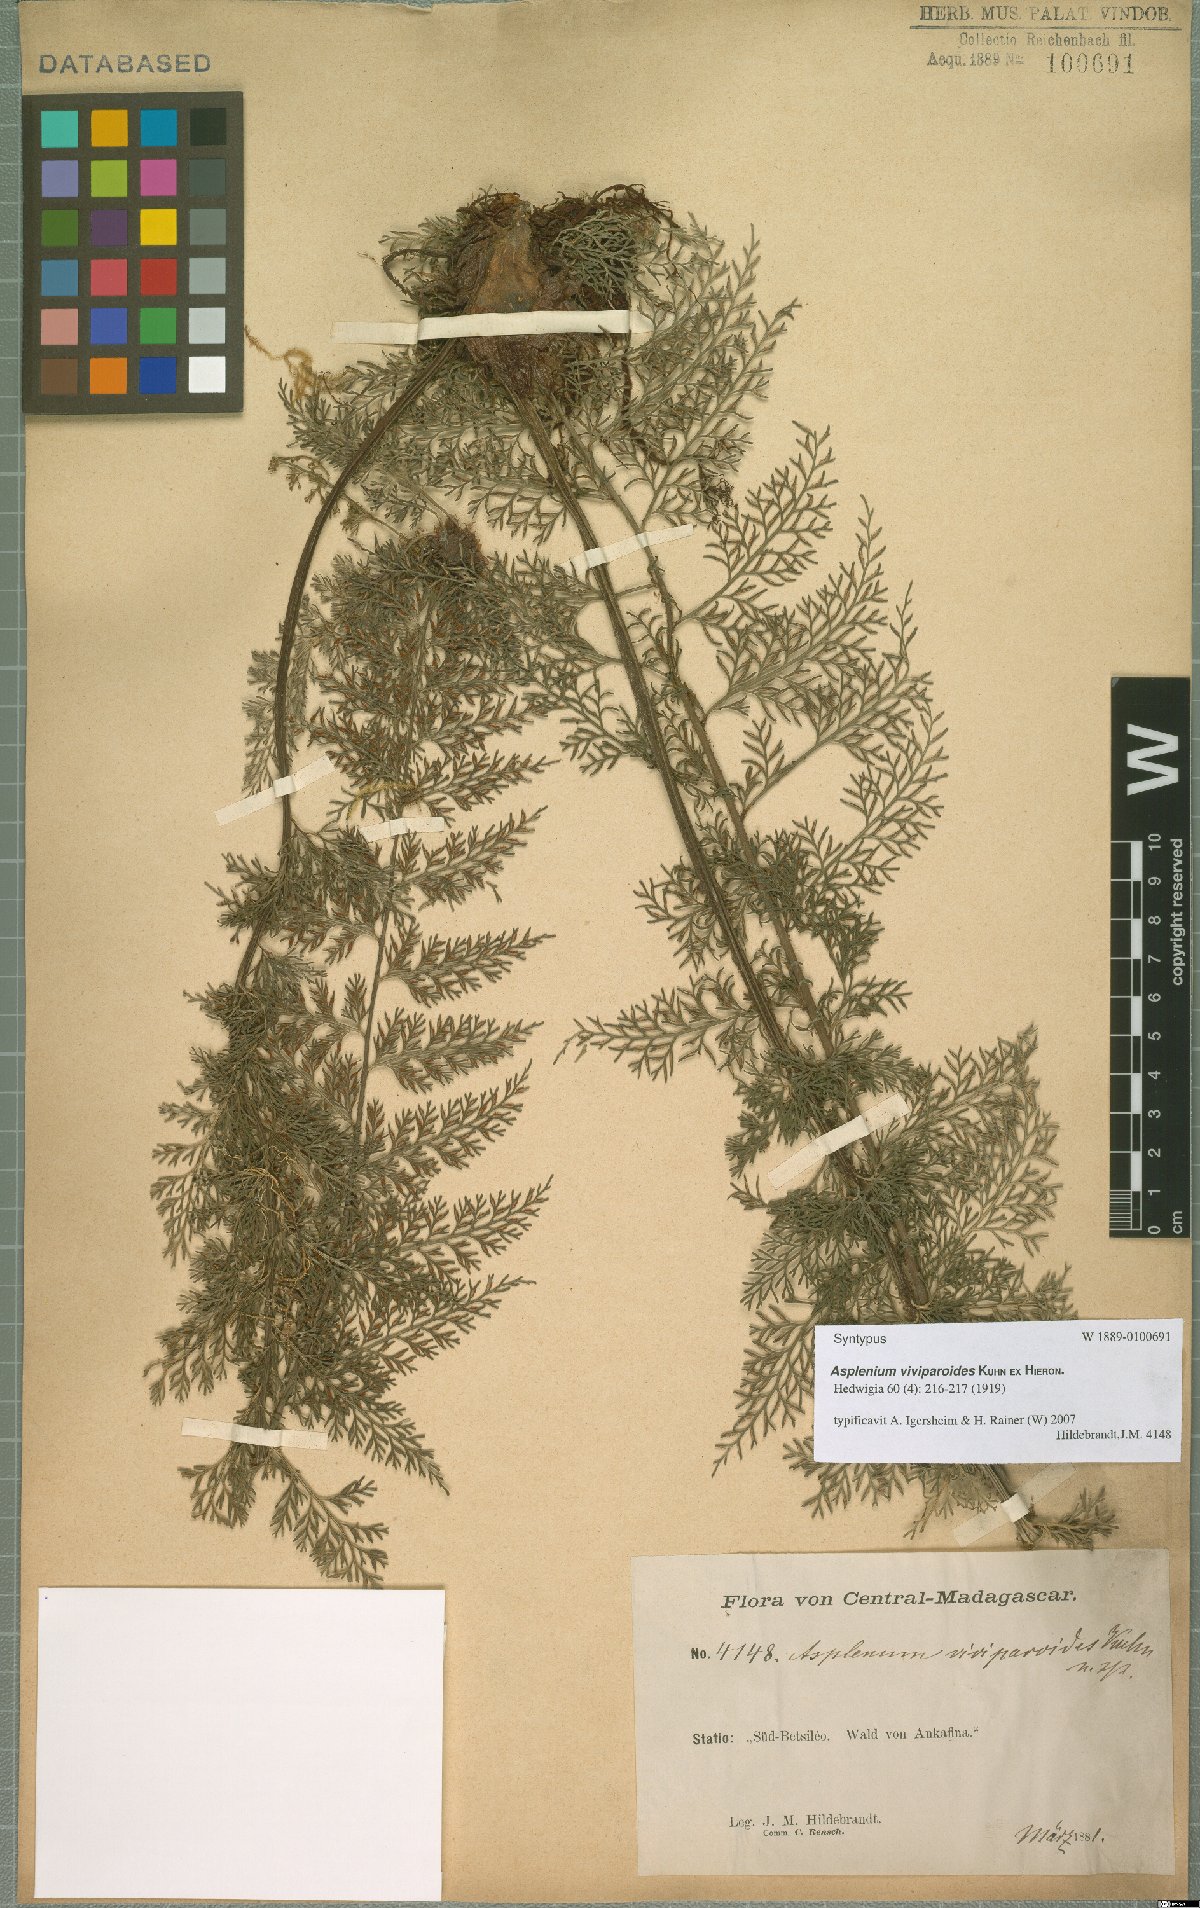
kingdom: Plantae
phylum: Tracheophyta
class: Polypodiopsida
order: Polypodiales
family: Aspleniaceae
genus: Asplenium
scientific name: Asplenium viviparioides
